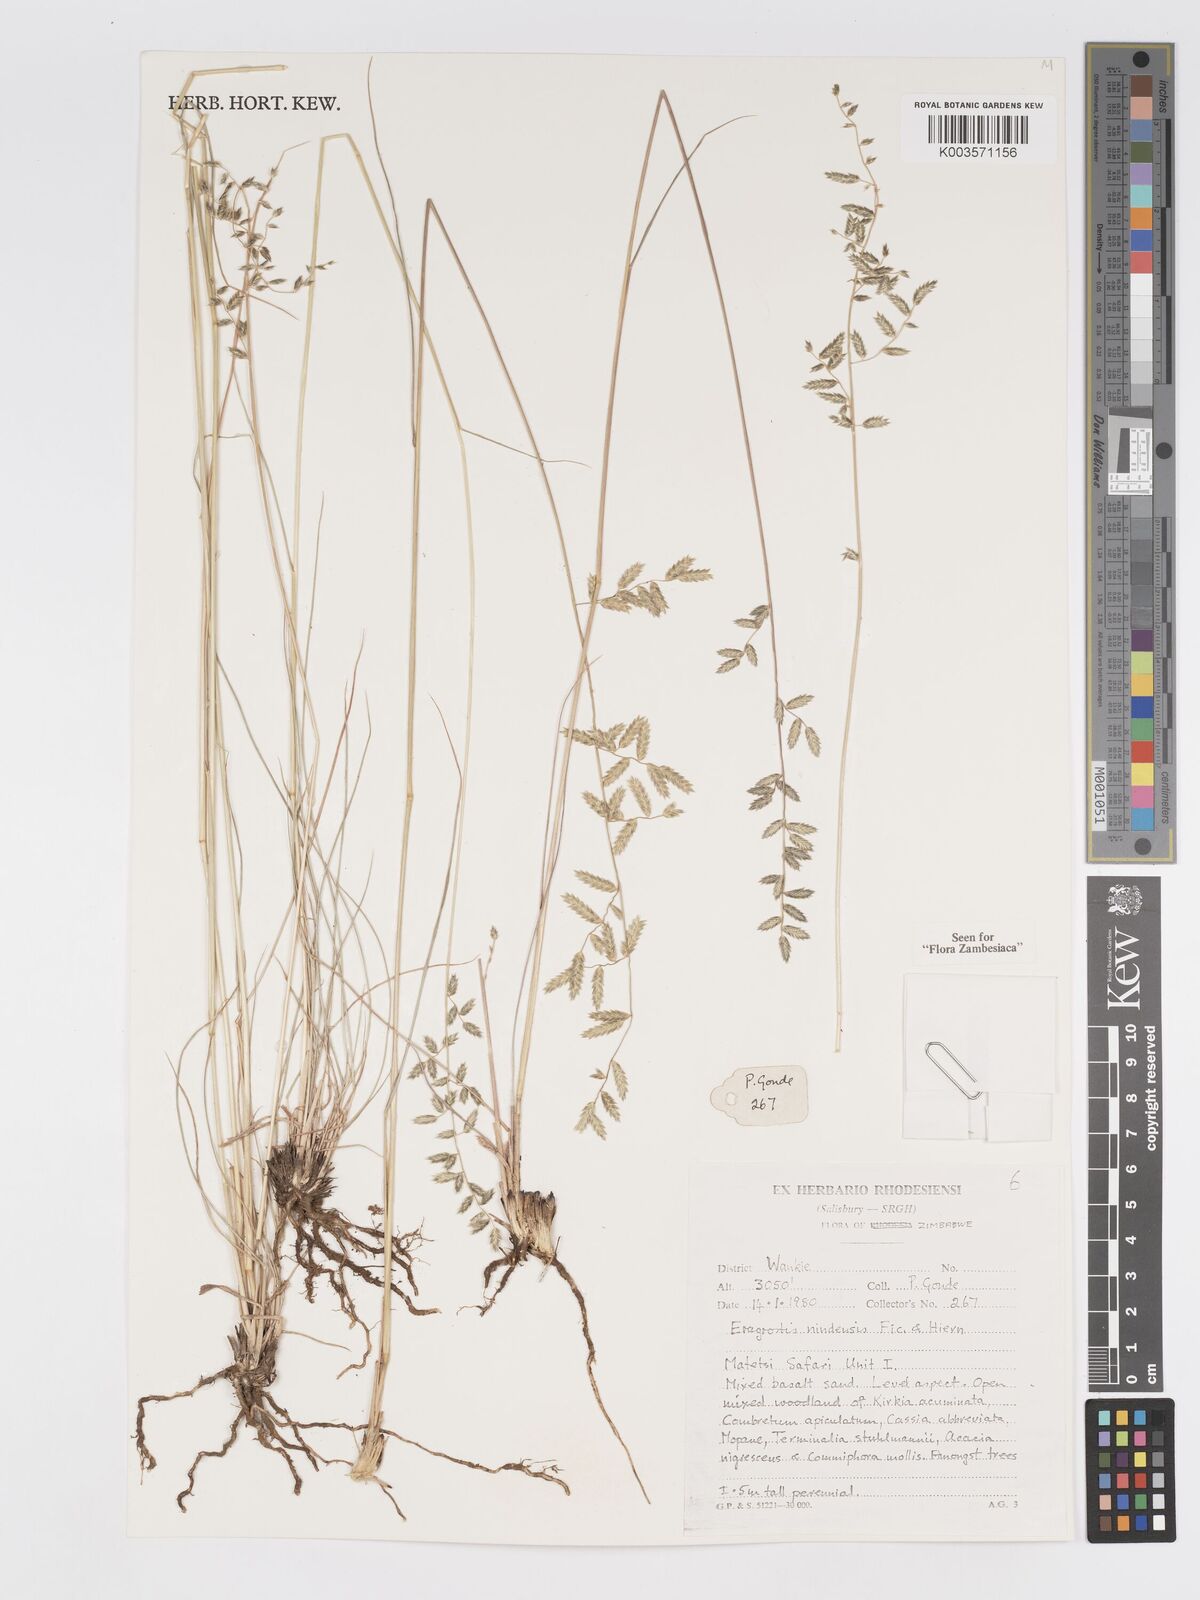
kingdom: Plantae
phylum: Tracheophyta
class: Liliopsida
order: Poales
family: Poaceae
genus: Eragrostis
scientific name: Eragrostis nindensis
